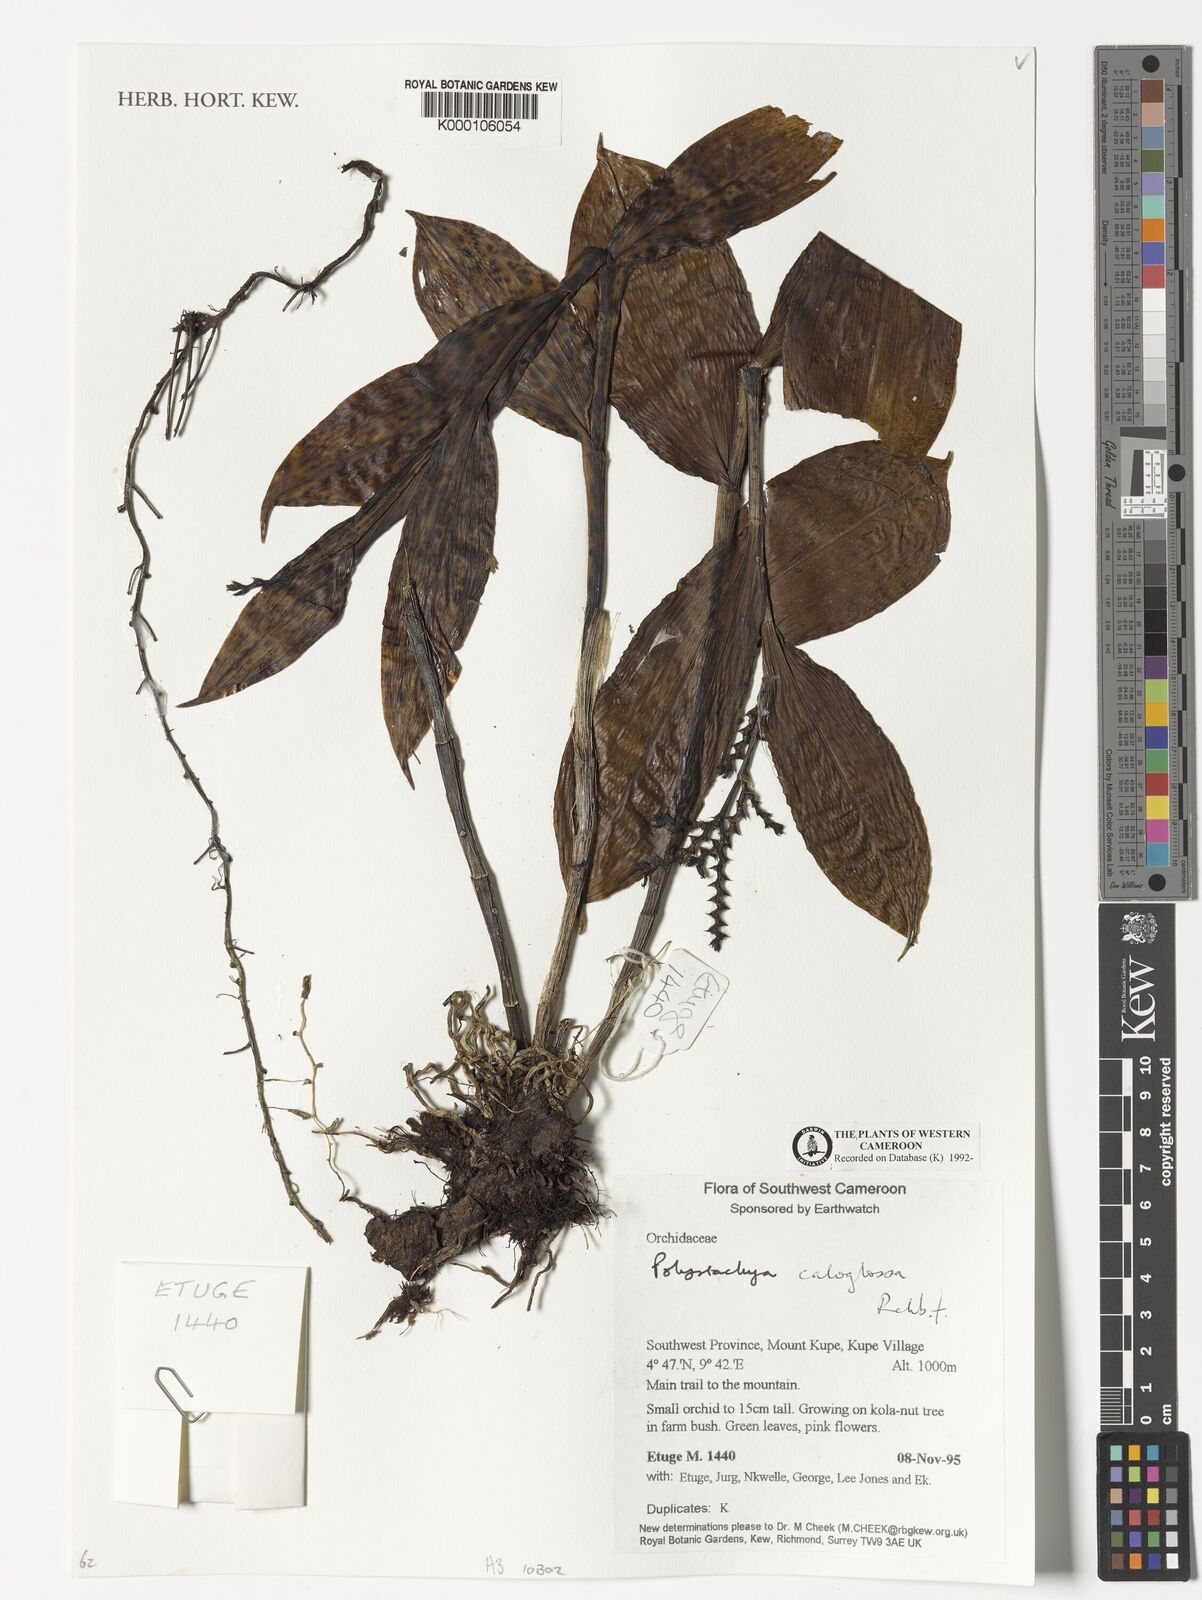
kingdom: Plantae
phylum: Tracheophyta
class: Liliopsida
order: Asparagales
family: Orchidaceae
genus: Polystachya
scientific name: Polystachya caloglossa
